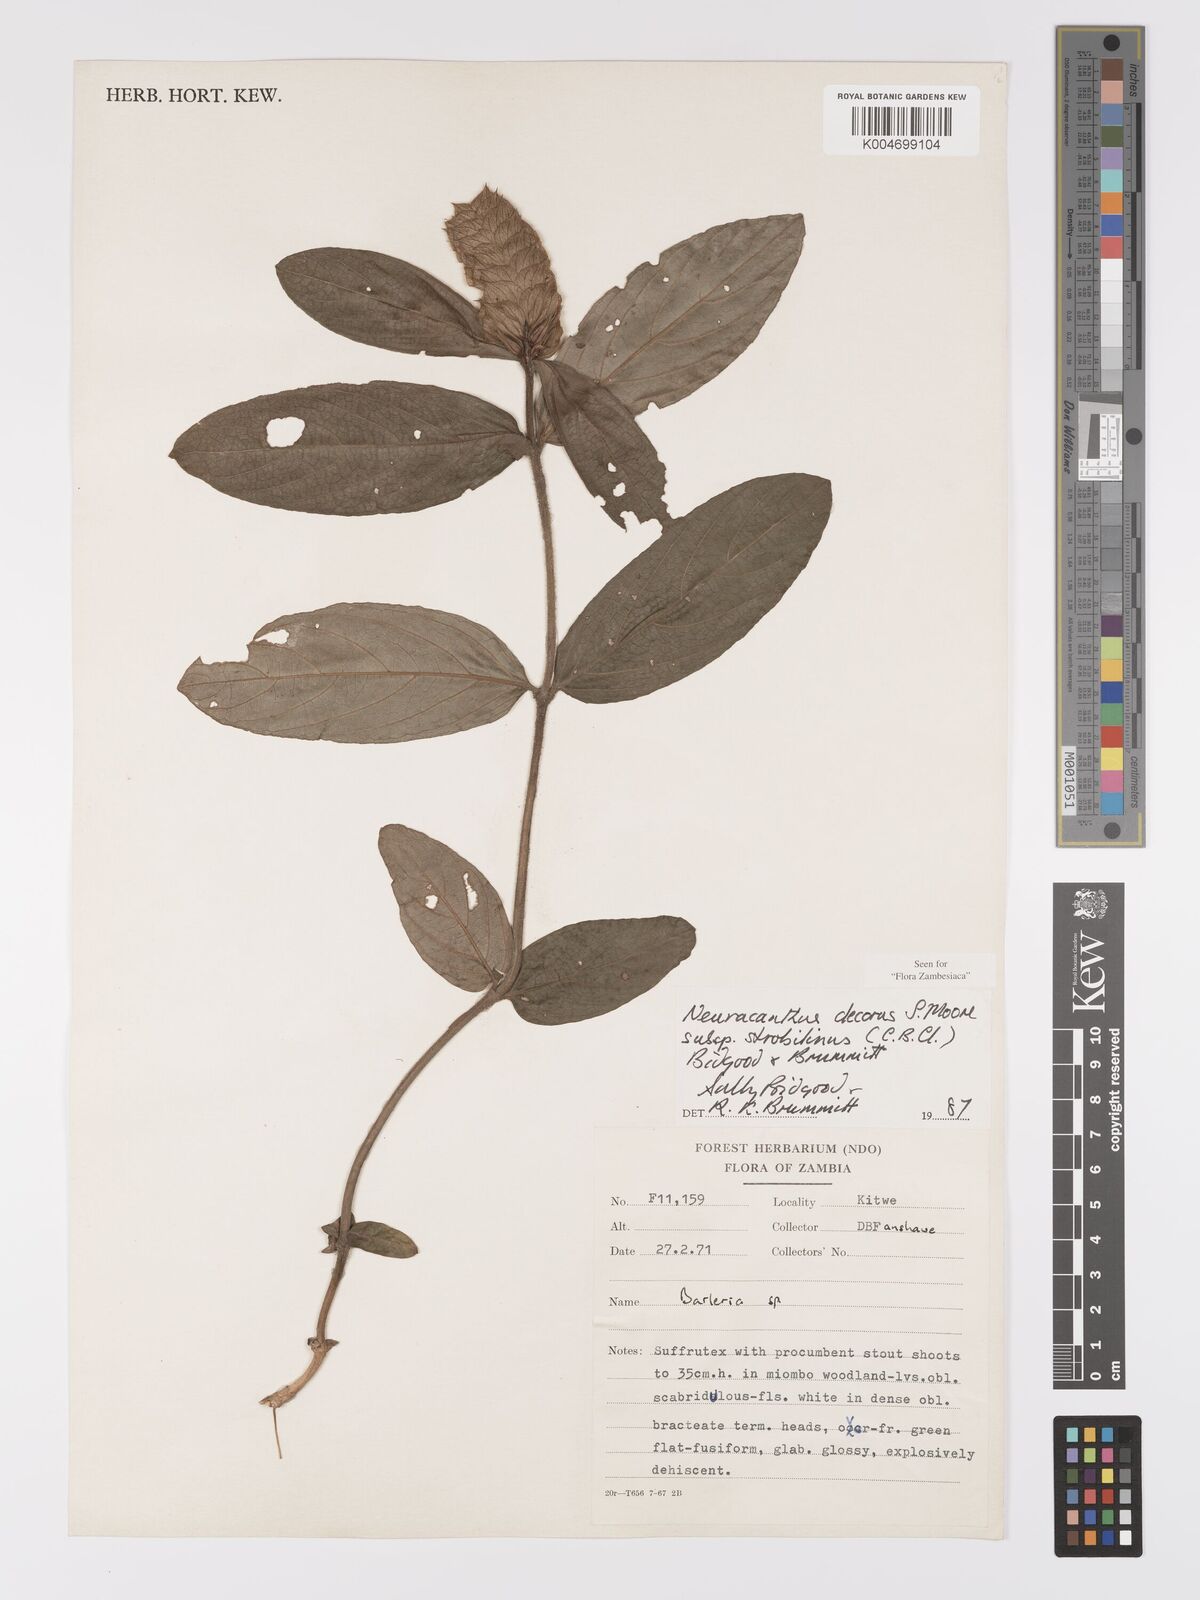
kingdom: Plantae
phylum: Tracheophyta
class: Magnoliopsida
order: Lamiales
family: Acanthaceae
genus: Neuracanthus
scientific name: Neuracanthus decorus
